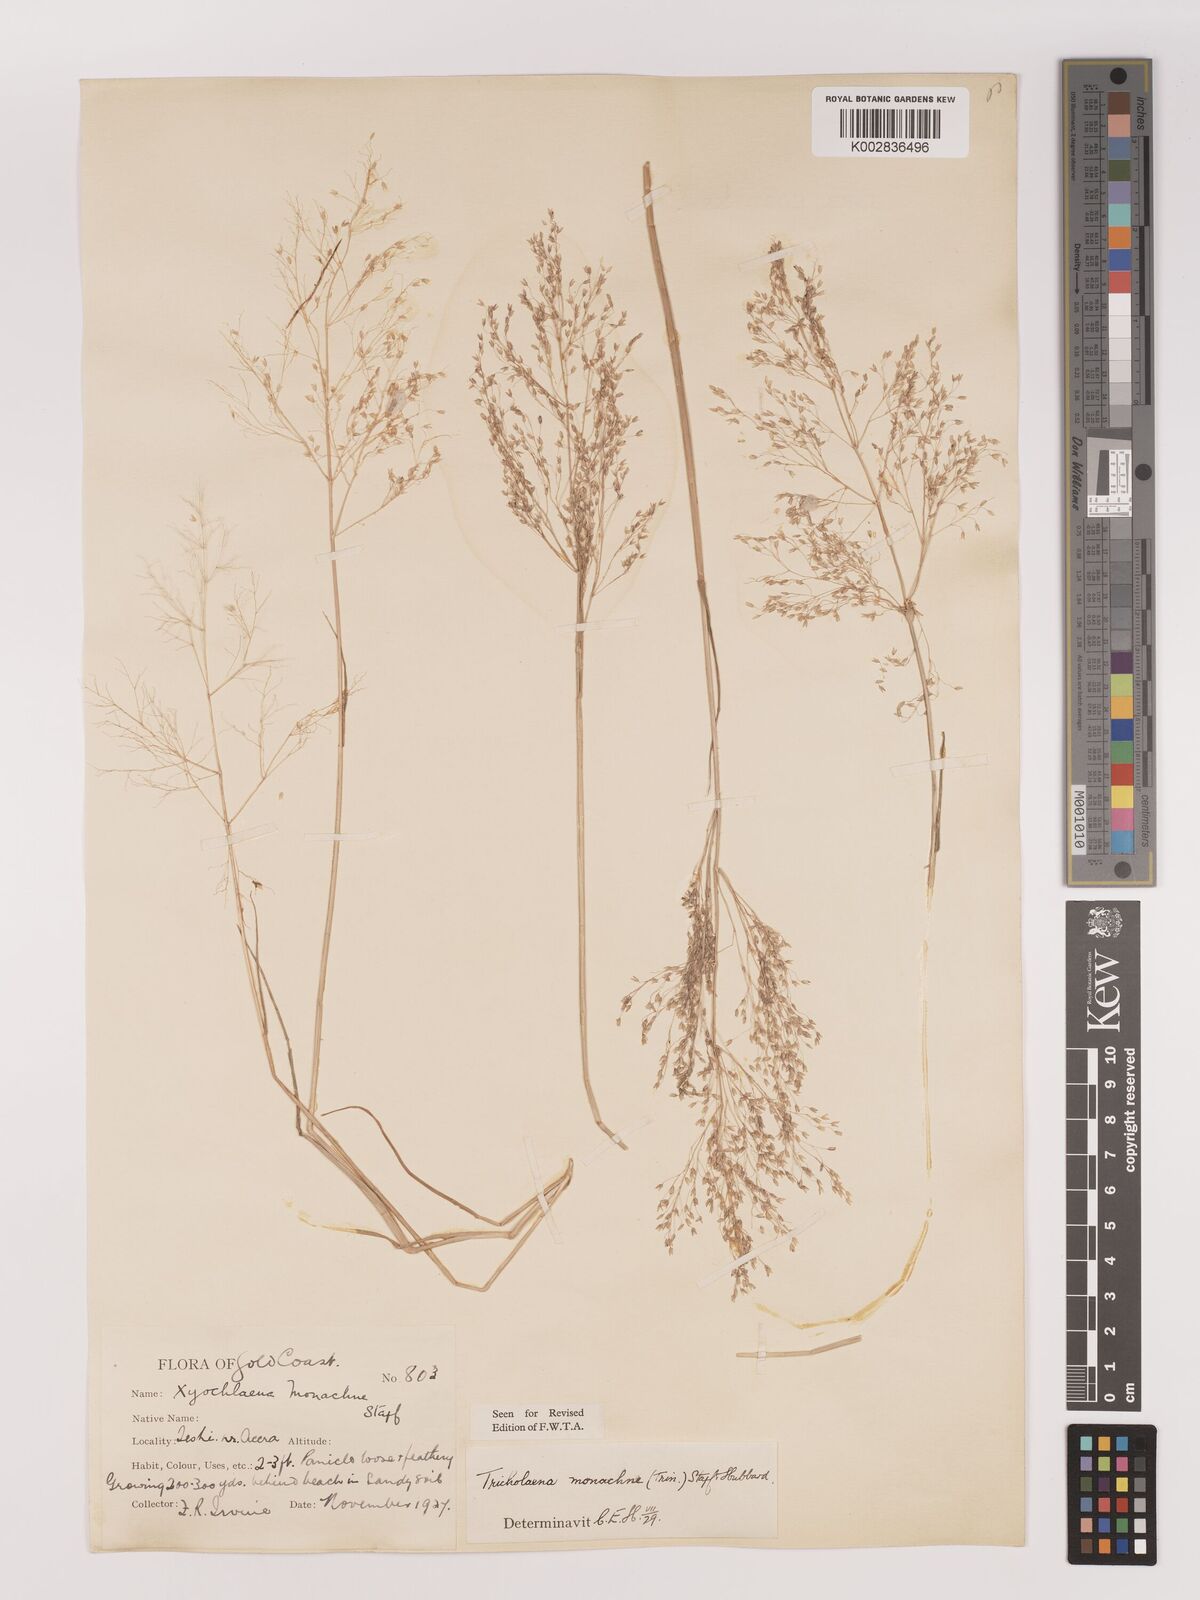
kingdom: Plantae
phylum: Tracheophyta
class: Liliopsida
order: Poales
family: Poaceae
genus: Tricholaena
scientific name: Tricholaena monachne
